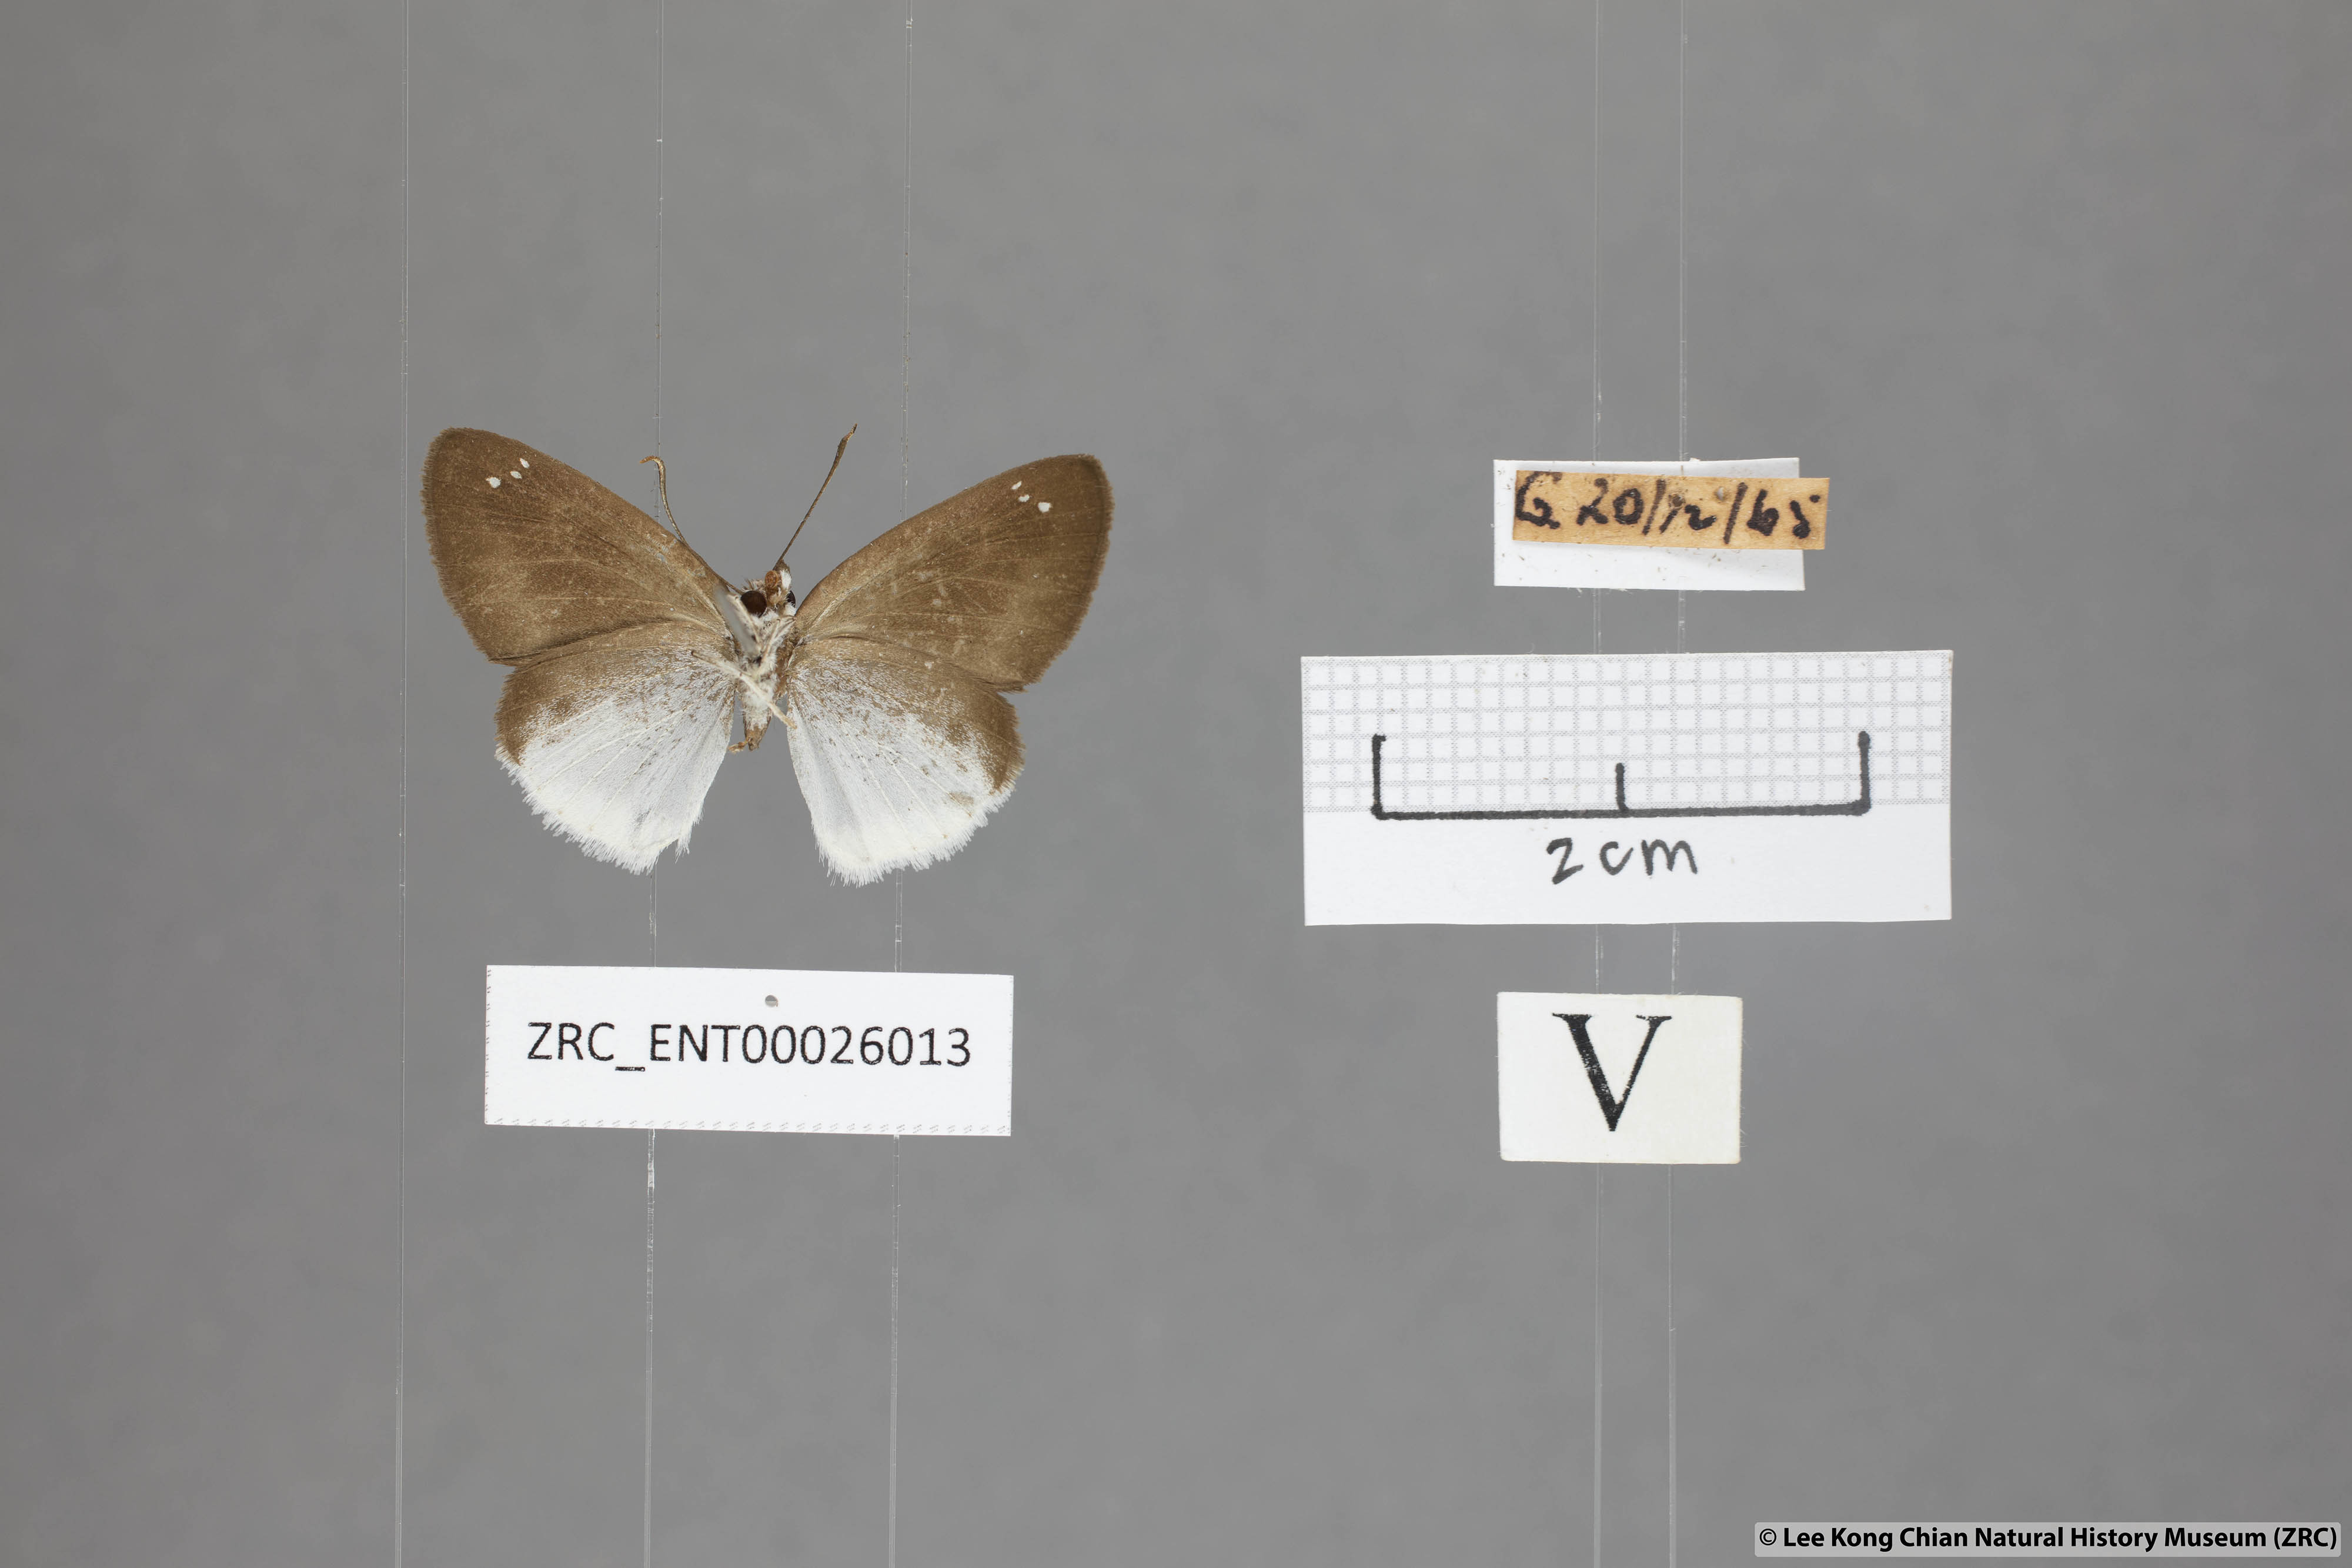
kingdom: Animalia
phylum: Arthropoda
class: Insecta
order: Lepidoptera
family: Hesperiidae
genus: Tagiades
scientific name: Tagiades lavata
